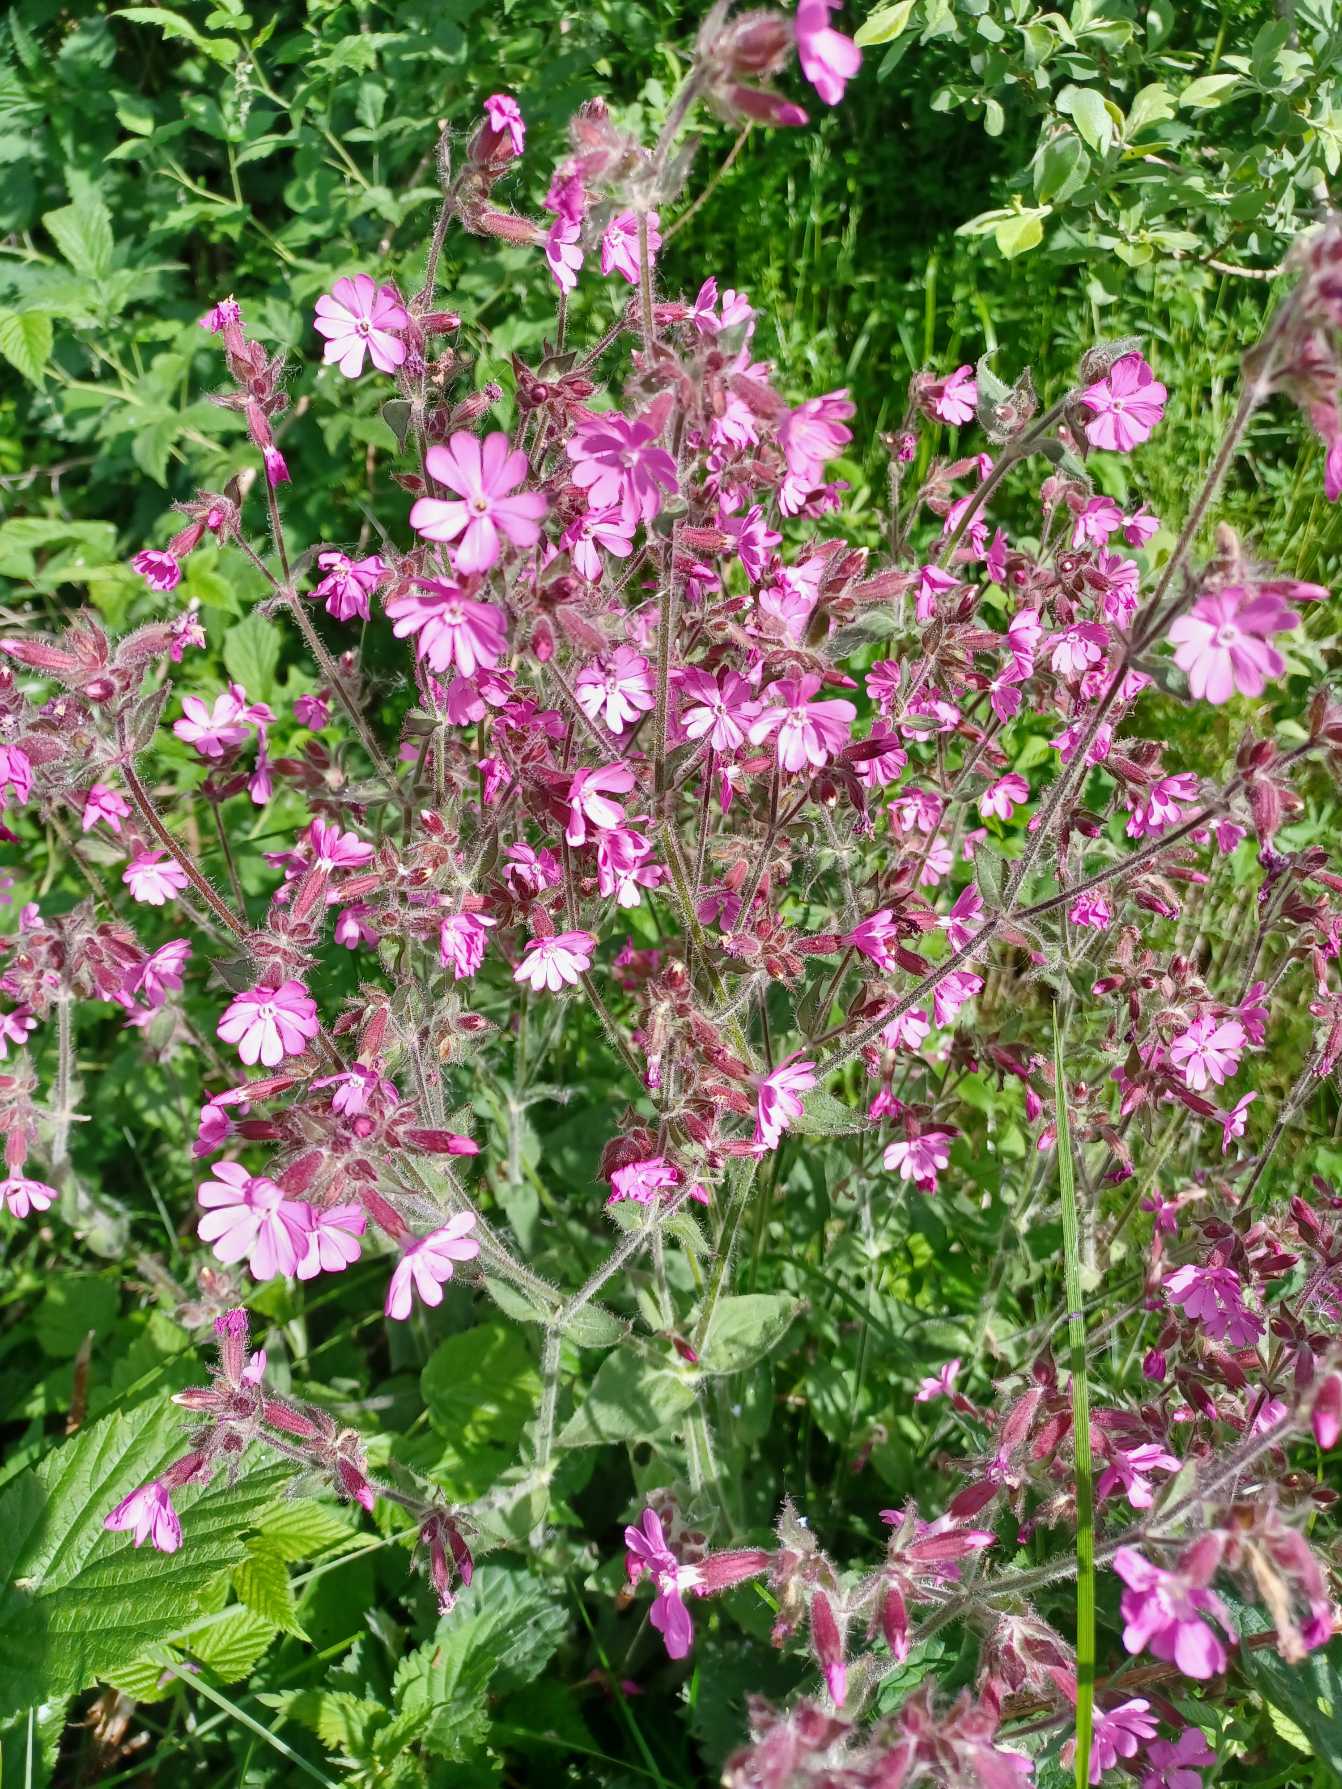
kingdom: Plantae
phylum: Tracheophyta
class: Magnoliopsida
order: Caryophyllales
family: Caryophyllaceae
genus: Silene
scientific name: Silene dioica
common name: Dagpragtstjerne
